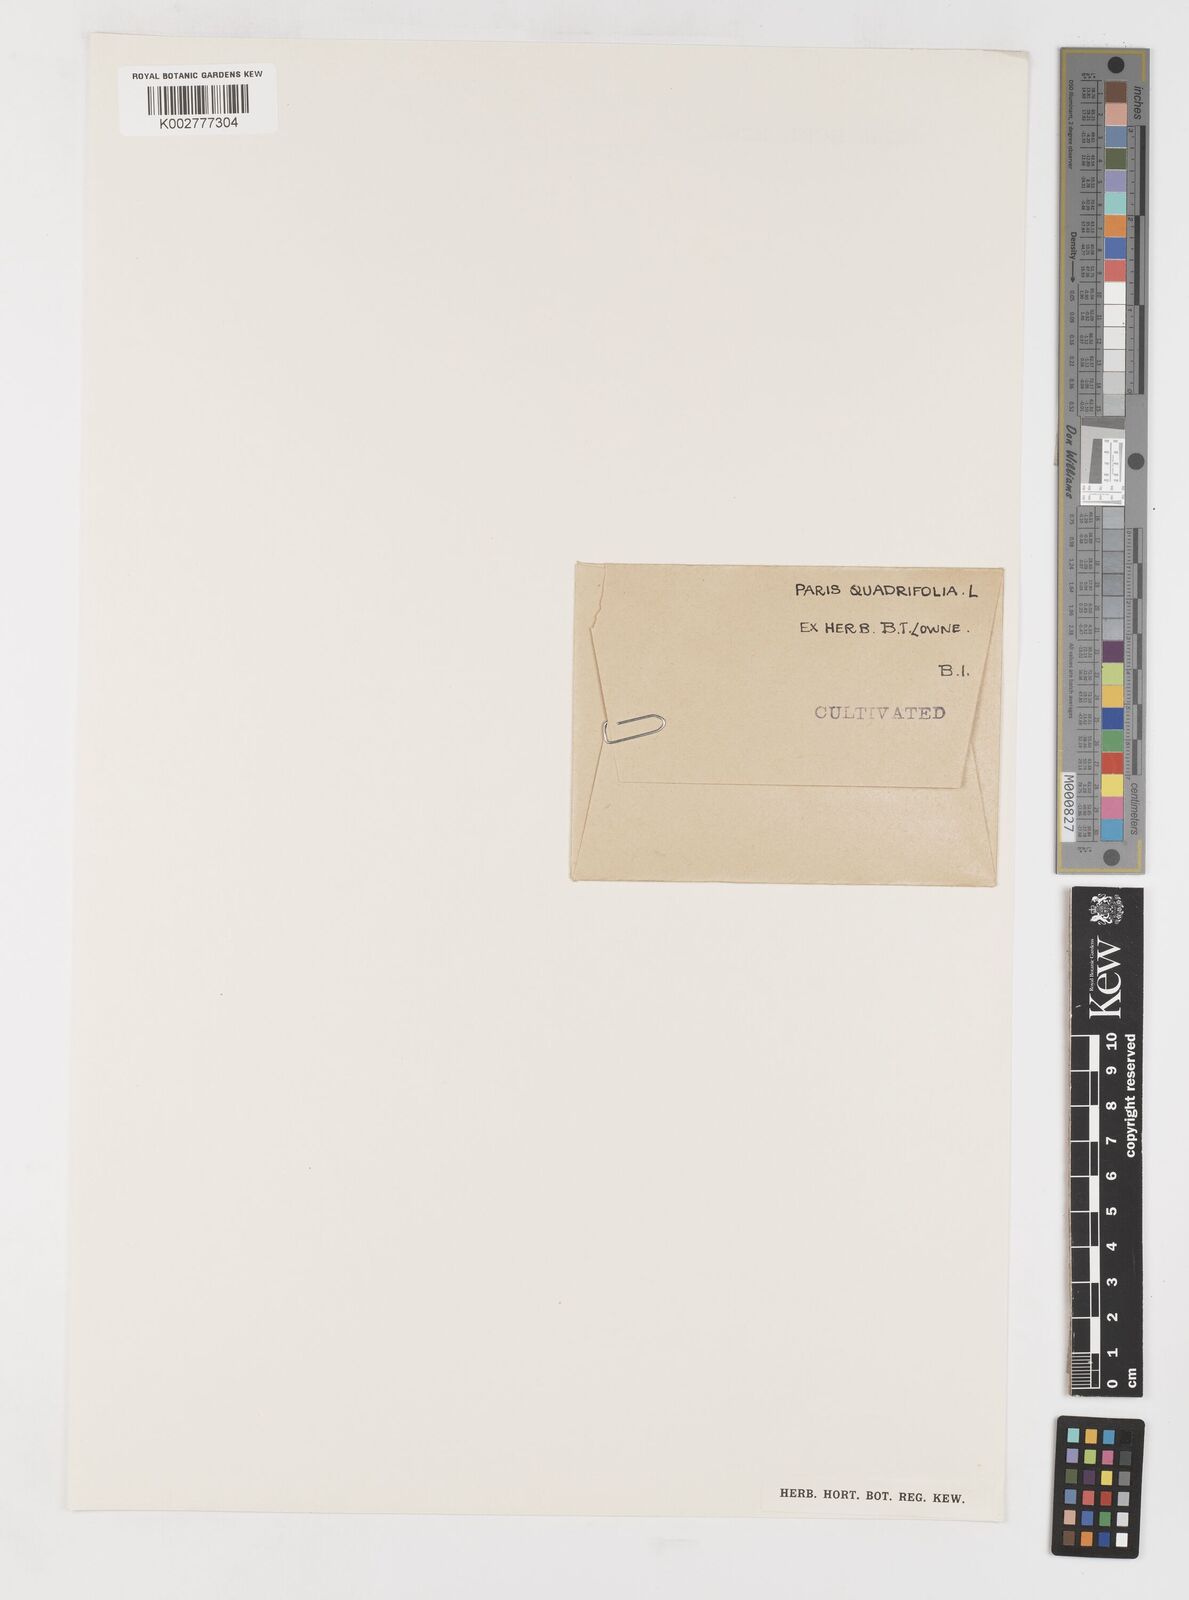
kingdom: Plantae
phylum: Tracheophyta
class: Liliopsida
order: Liliales
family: Melanthiaceae
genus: Paris
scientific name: Paris quadrifolia
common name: Herb-paris
